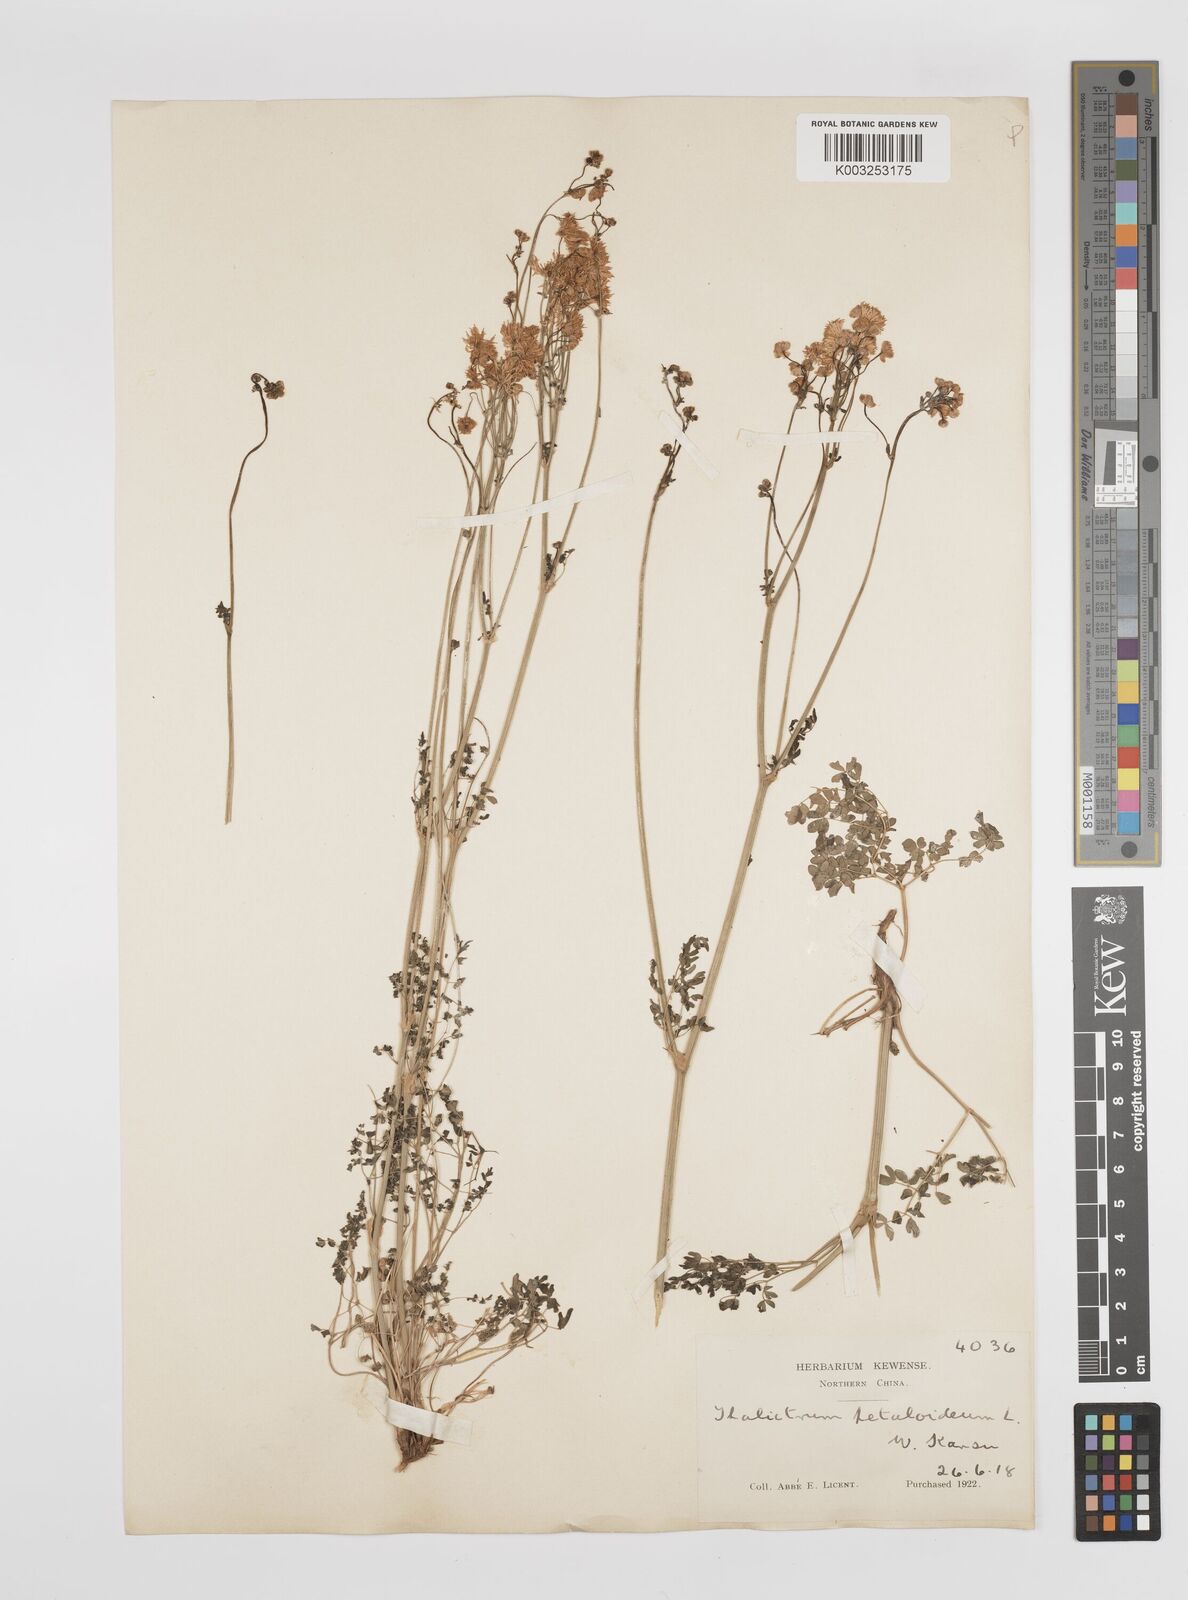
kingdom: Plantae
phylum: Tracheophyta
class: Magnoliopsida
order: Ranunculales
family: Ranunculaceae
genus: Thalictrum
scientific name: Thalictrum petaloideum
